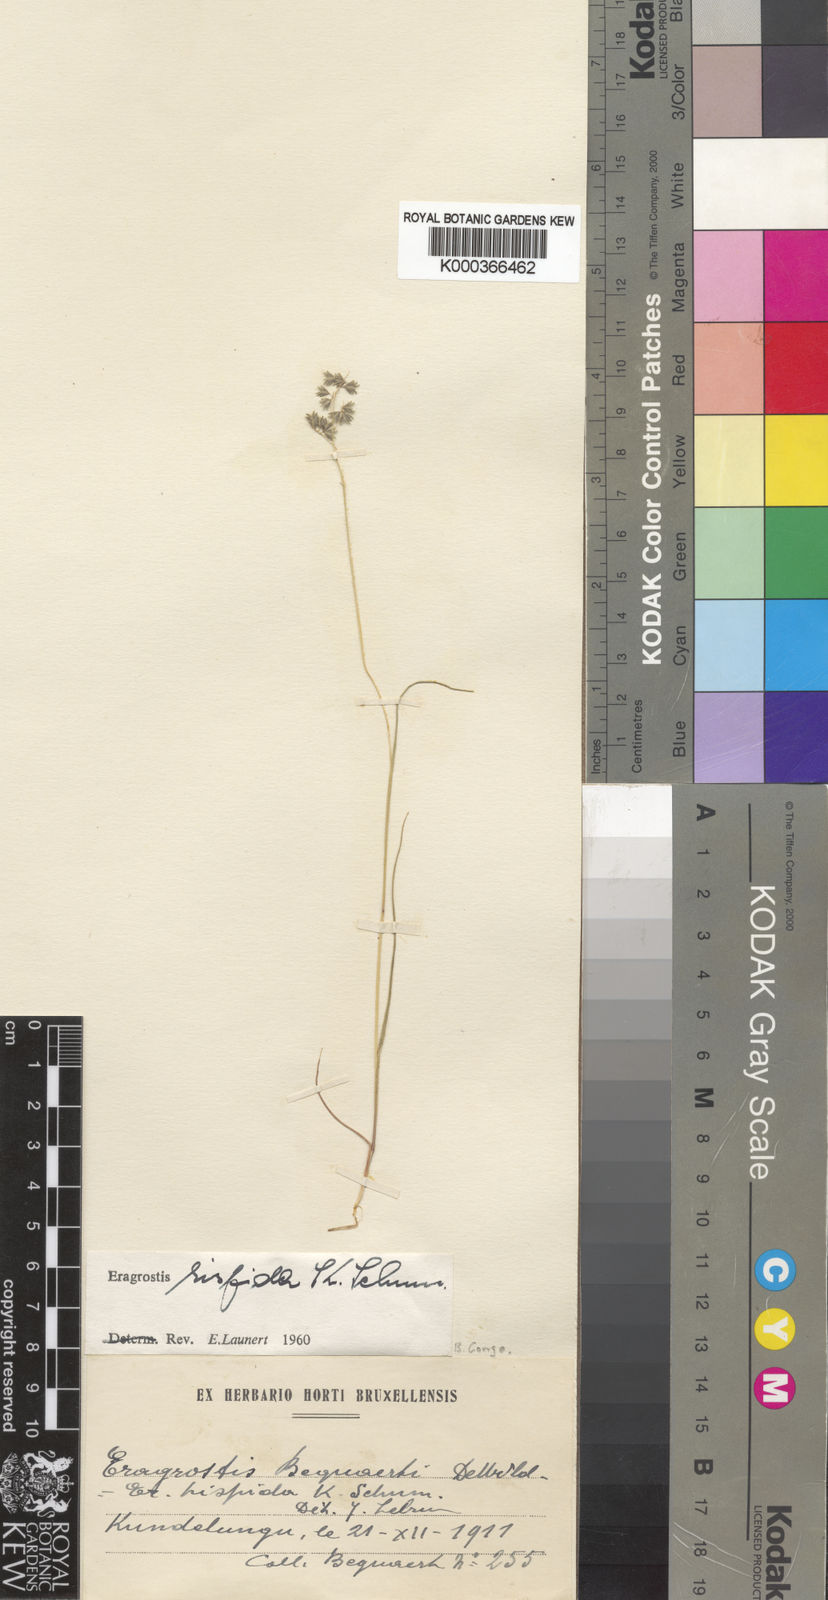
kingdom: Plantae
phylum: Tracheophyta
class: Liliopsida
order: Poales
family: Poaceae
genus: Eragrostis
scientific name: Eragrostis hispida
